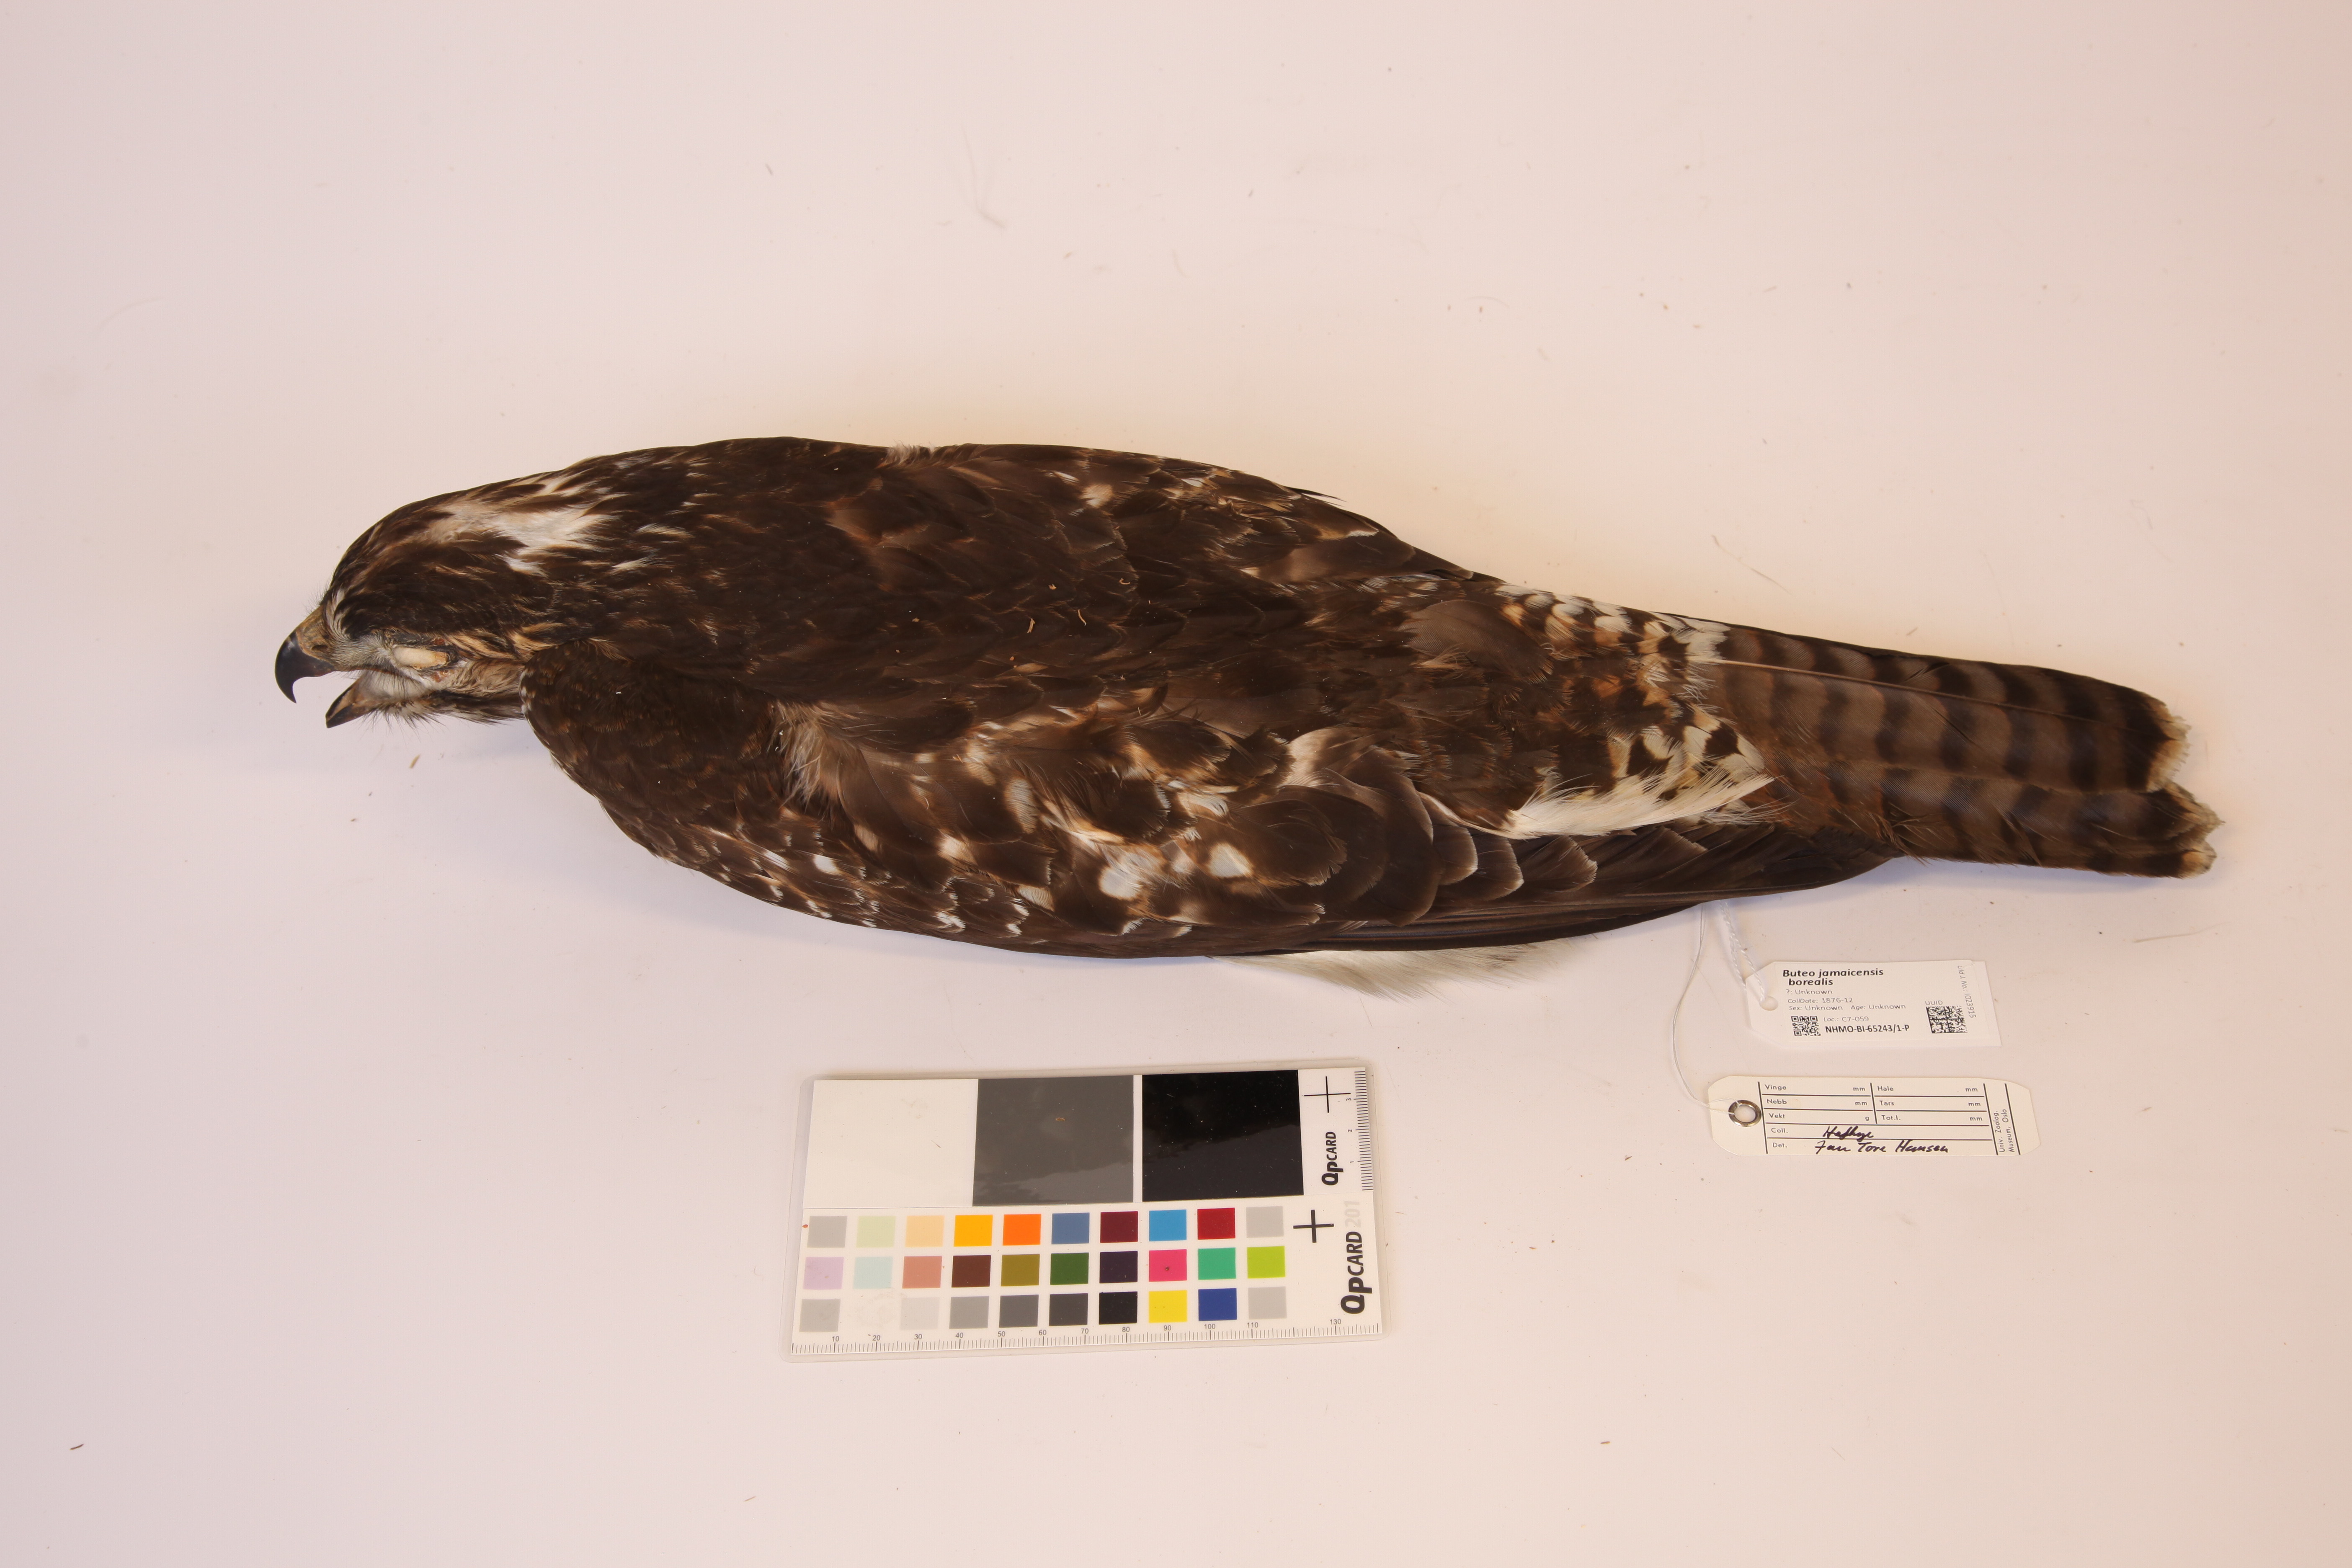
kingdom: Animalia
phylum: Chordata
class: Aves
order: Accipitriformes
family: Accipitridae
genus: Buteo
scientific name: Buteo jamaicensis
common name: Red-tailed hawk
